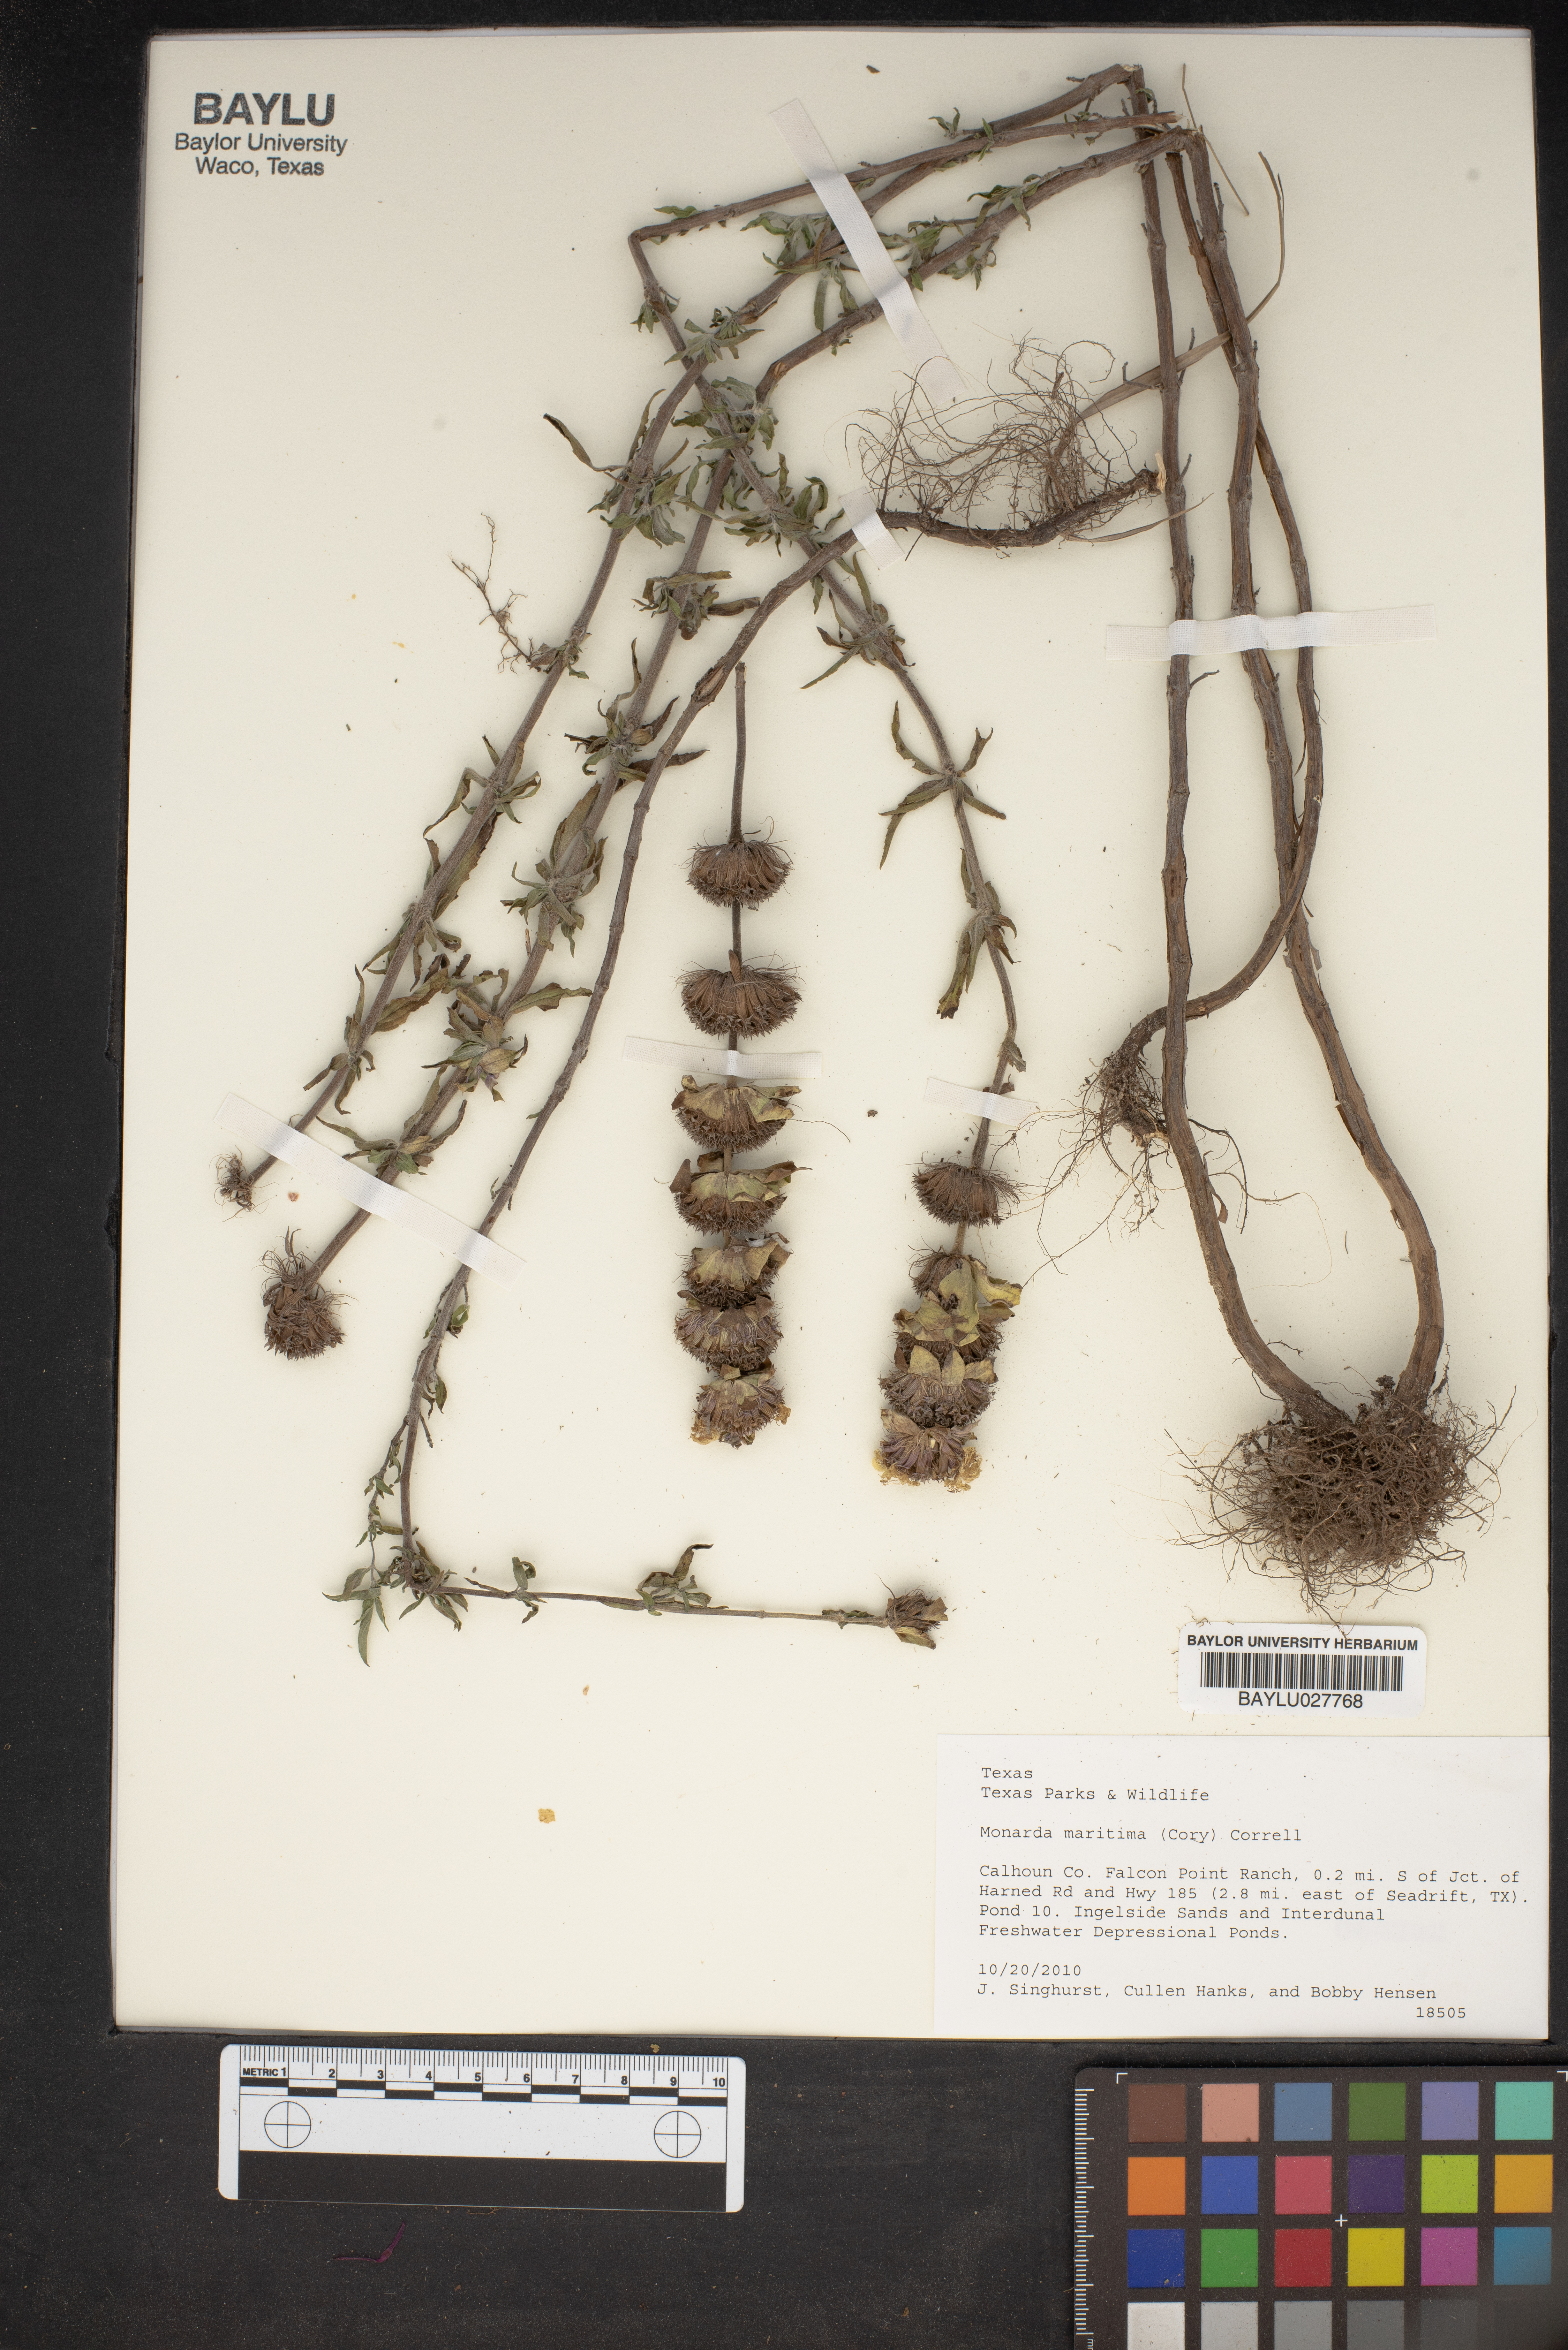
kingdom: Plantae
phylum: Tracheophyta
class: Magnoliopsida
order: Lamiales
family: Lamiaceae
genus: Monarda
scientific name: Monarda maritima
